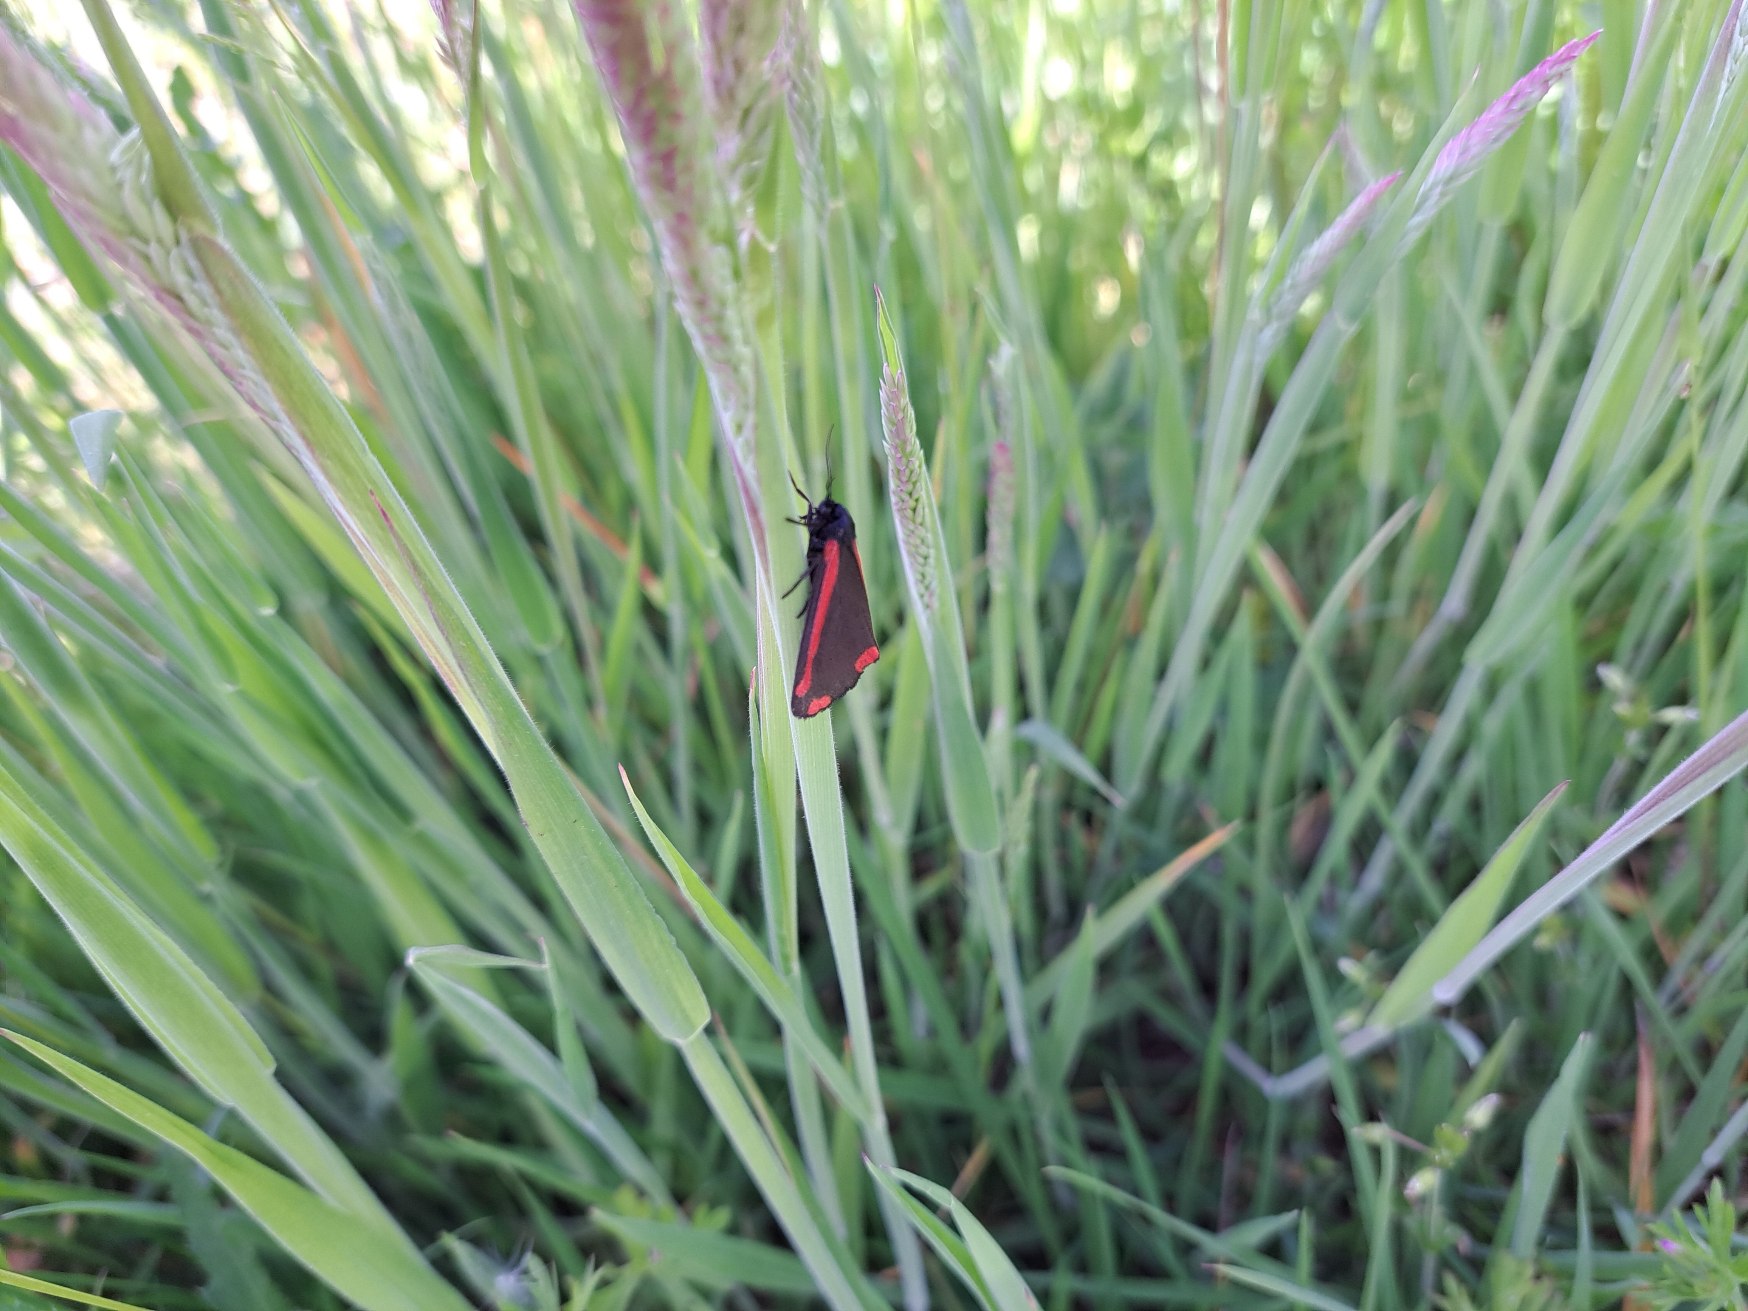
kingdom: Animalia
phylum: Arthropoda
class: Insecta
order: Lepidoptera
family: Erebidae
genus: Tyria
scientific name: Tyria jacobaeae
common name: Blodplet
